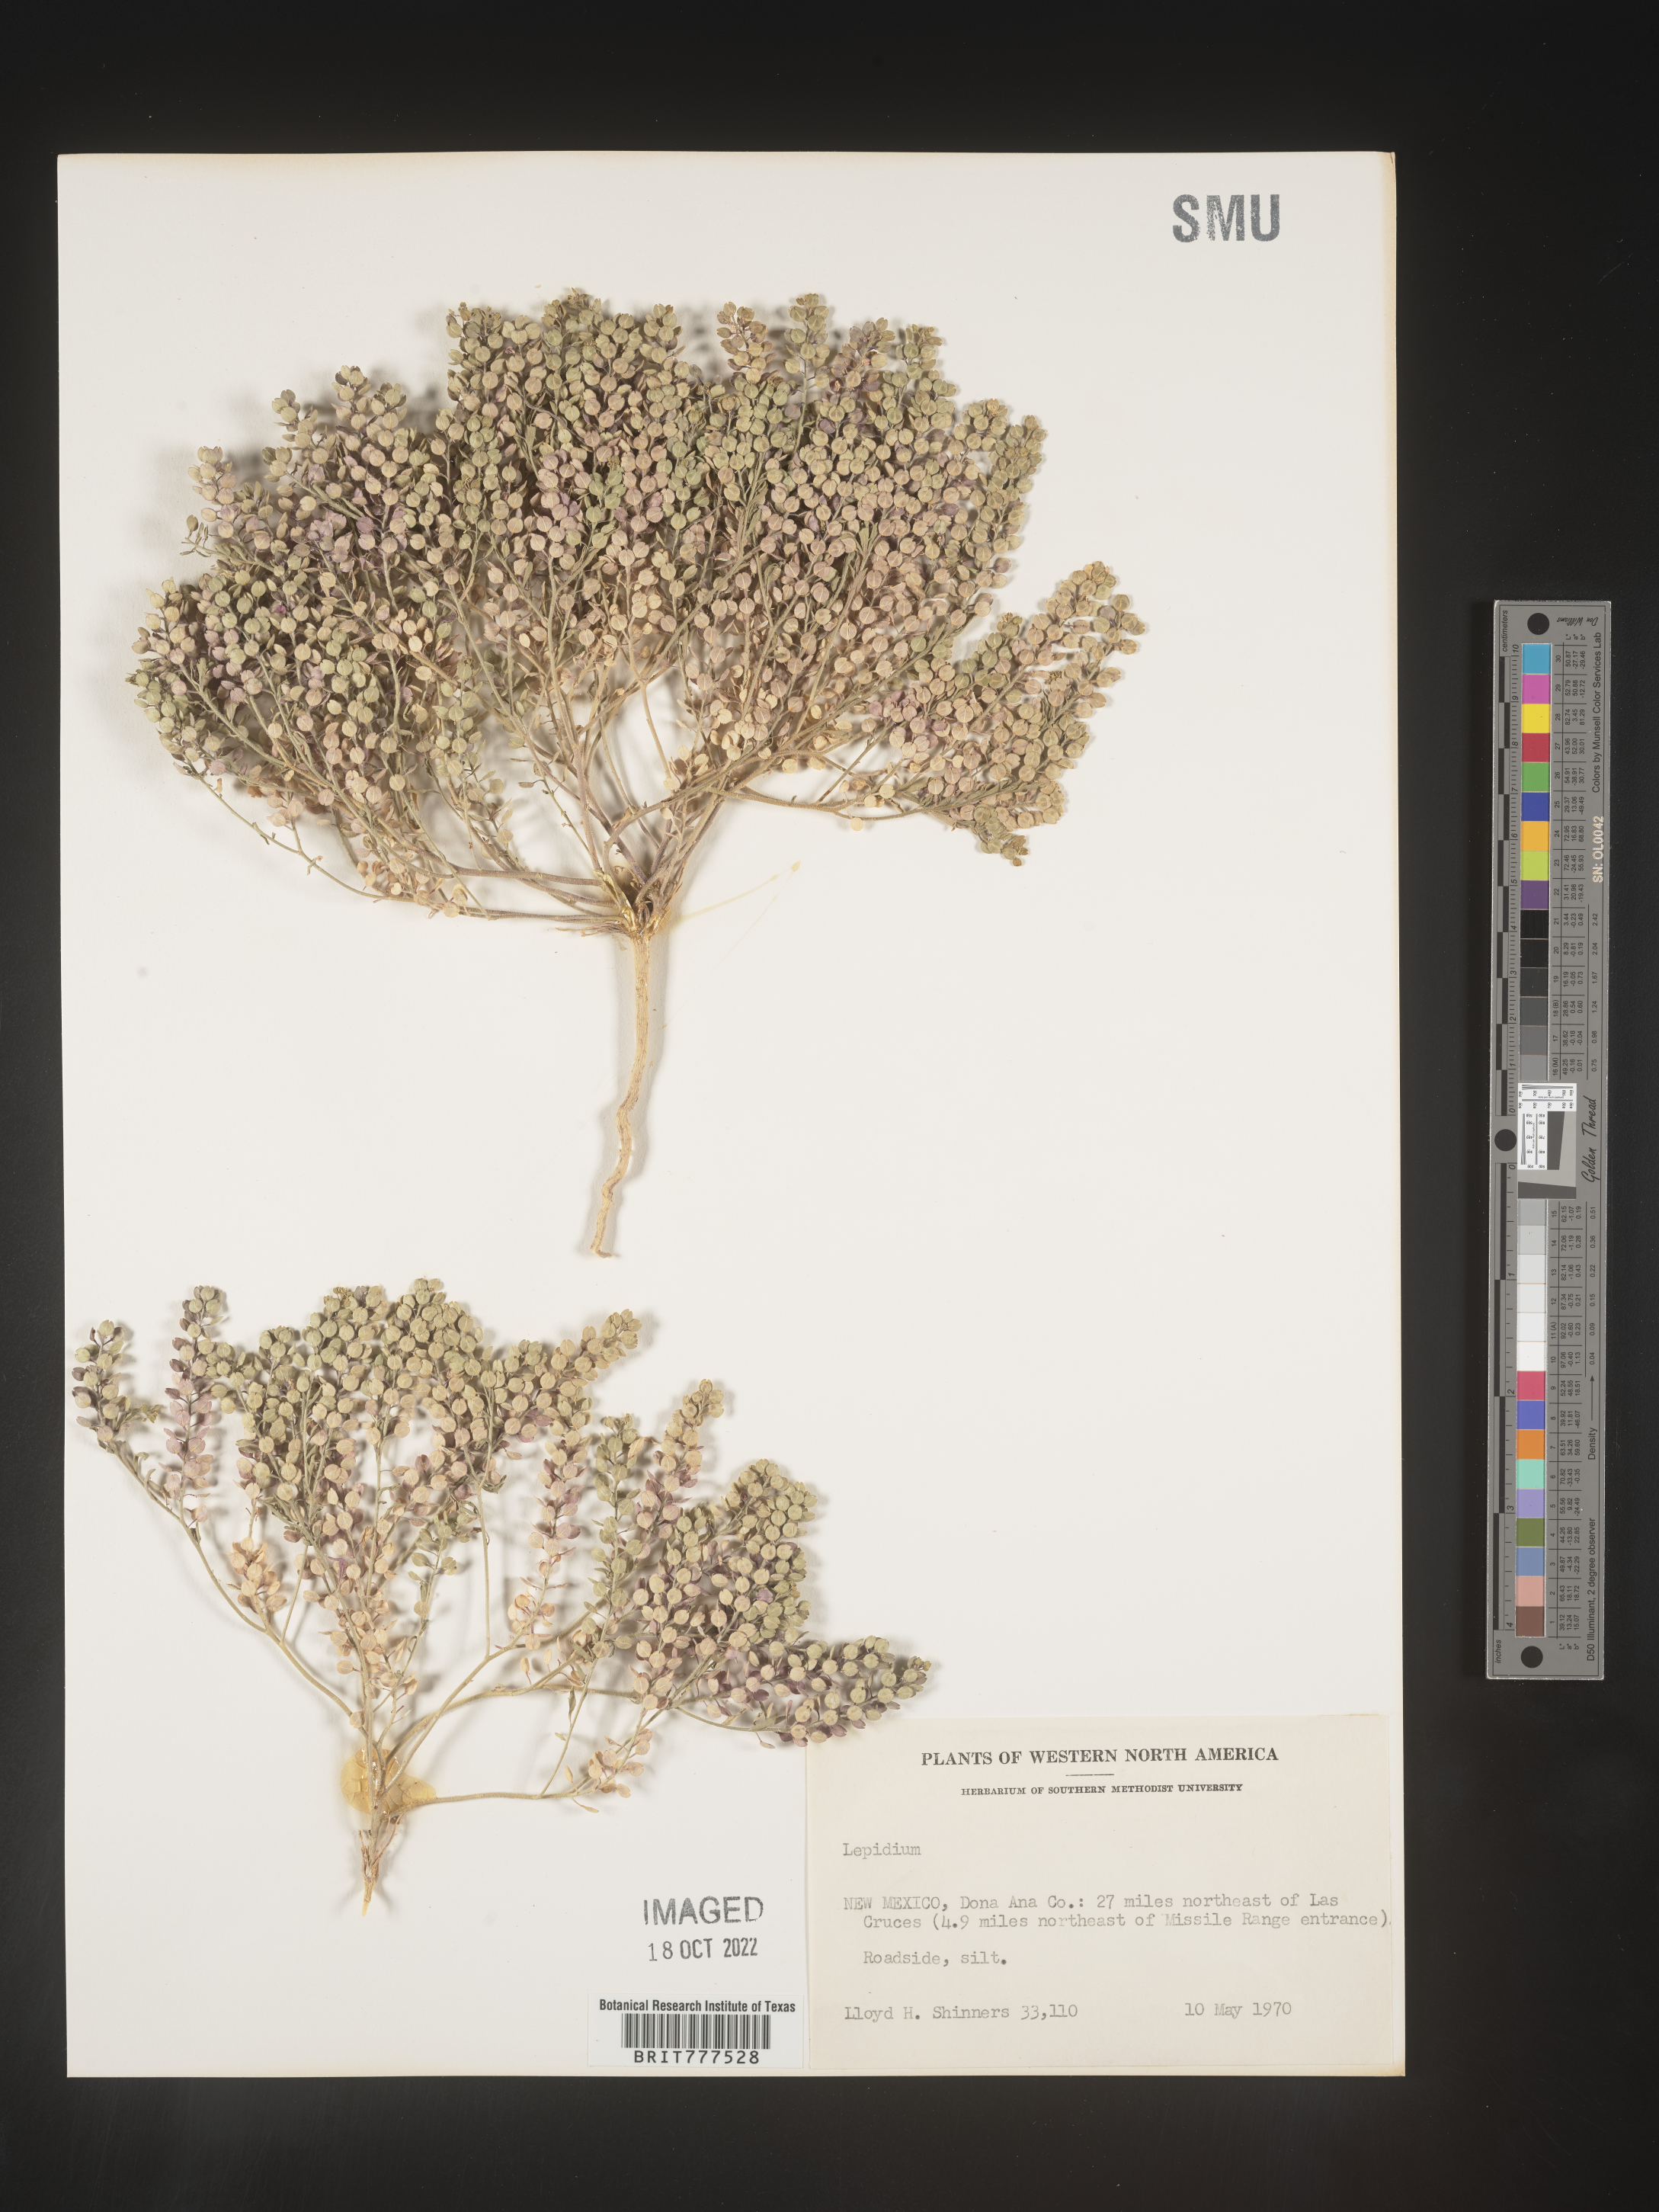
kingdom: Plantae
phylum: Tracheophyta
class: Magnoliopsida
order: Brassicales
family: Brassicaceae
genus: Lepidium
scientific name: Lepidium
